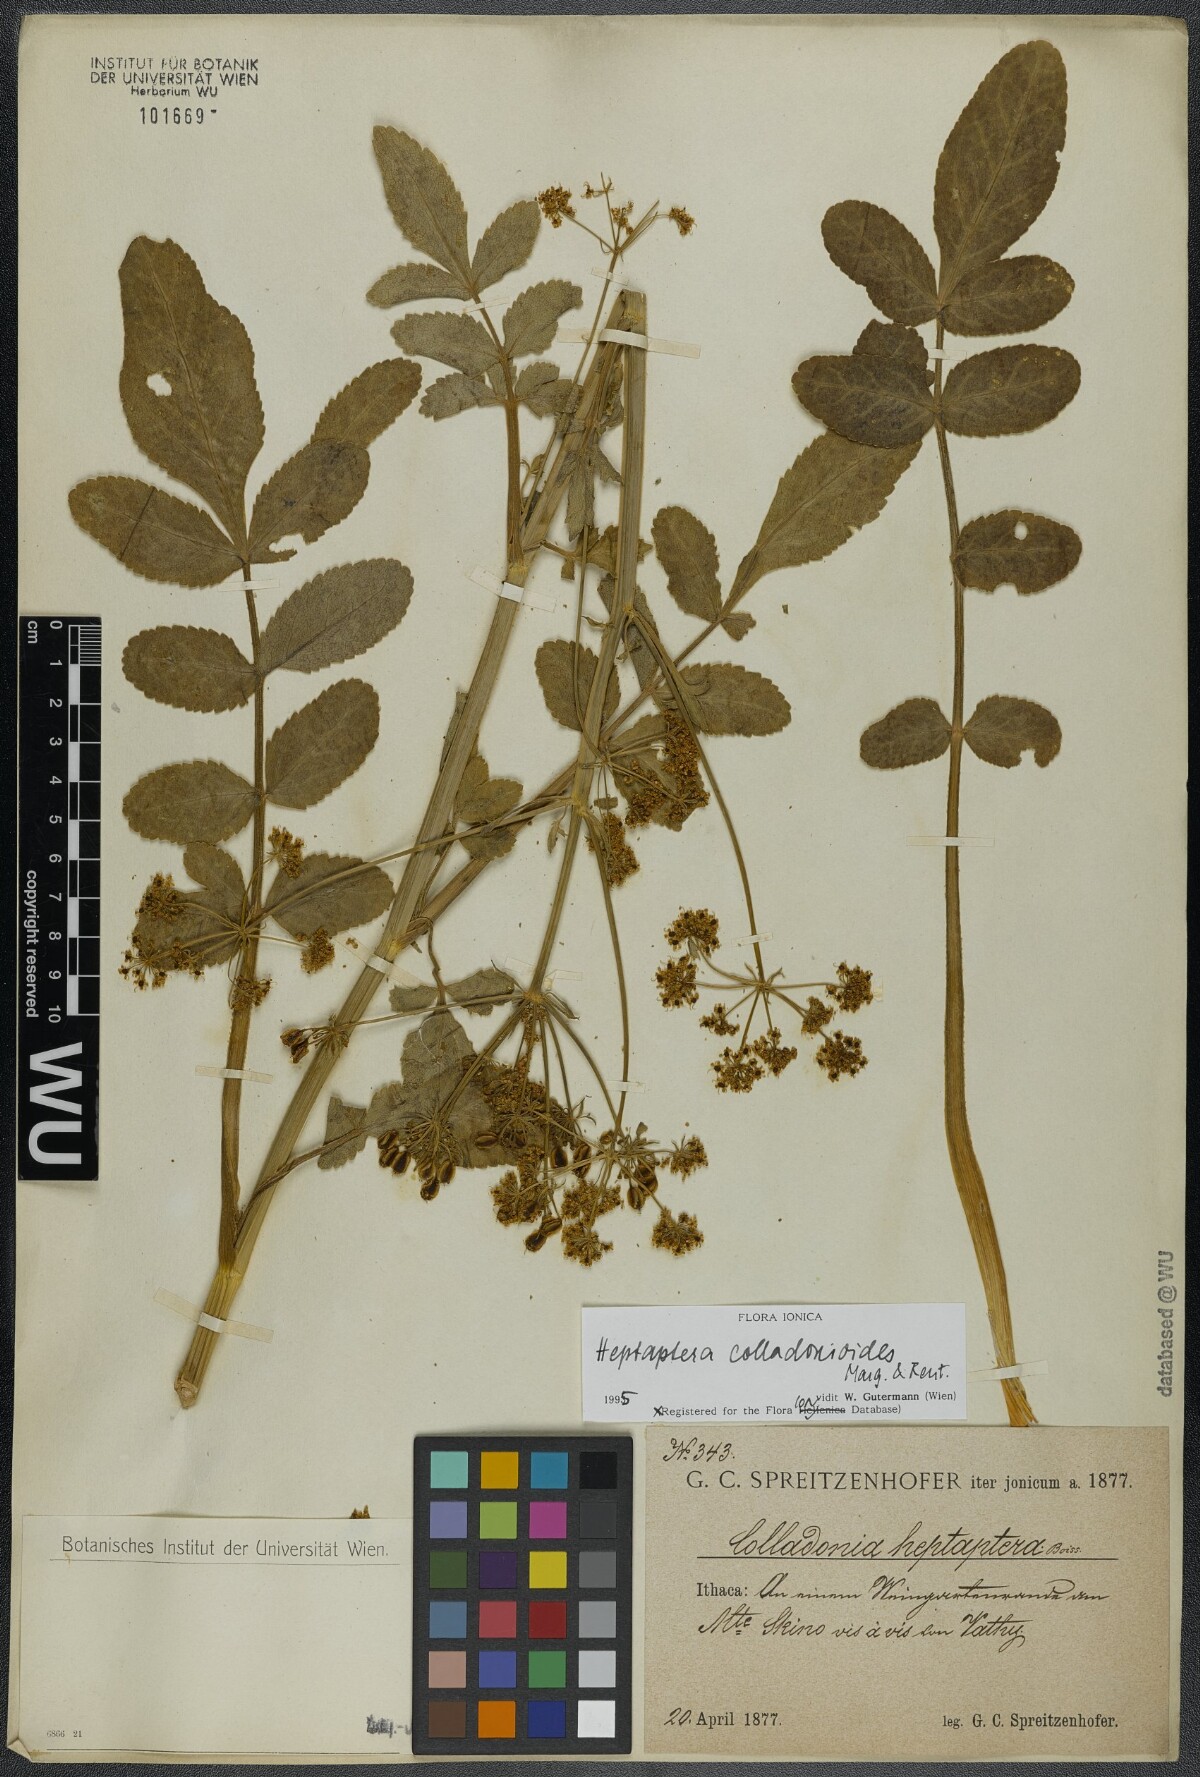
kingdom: Plantae
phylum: Tracheophyta
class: Magnoliopsida
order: Apiales
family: Apiaceae
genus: Heptaptera
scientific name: Heptaptera colladonioides
